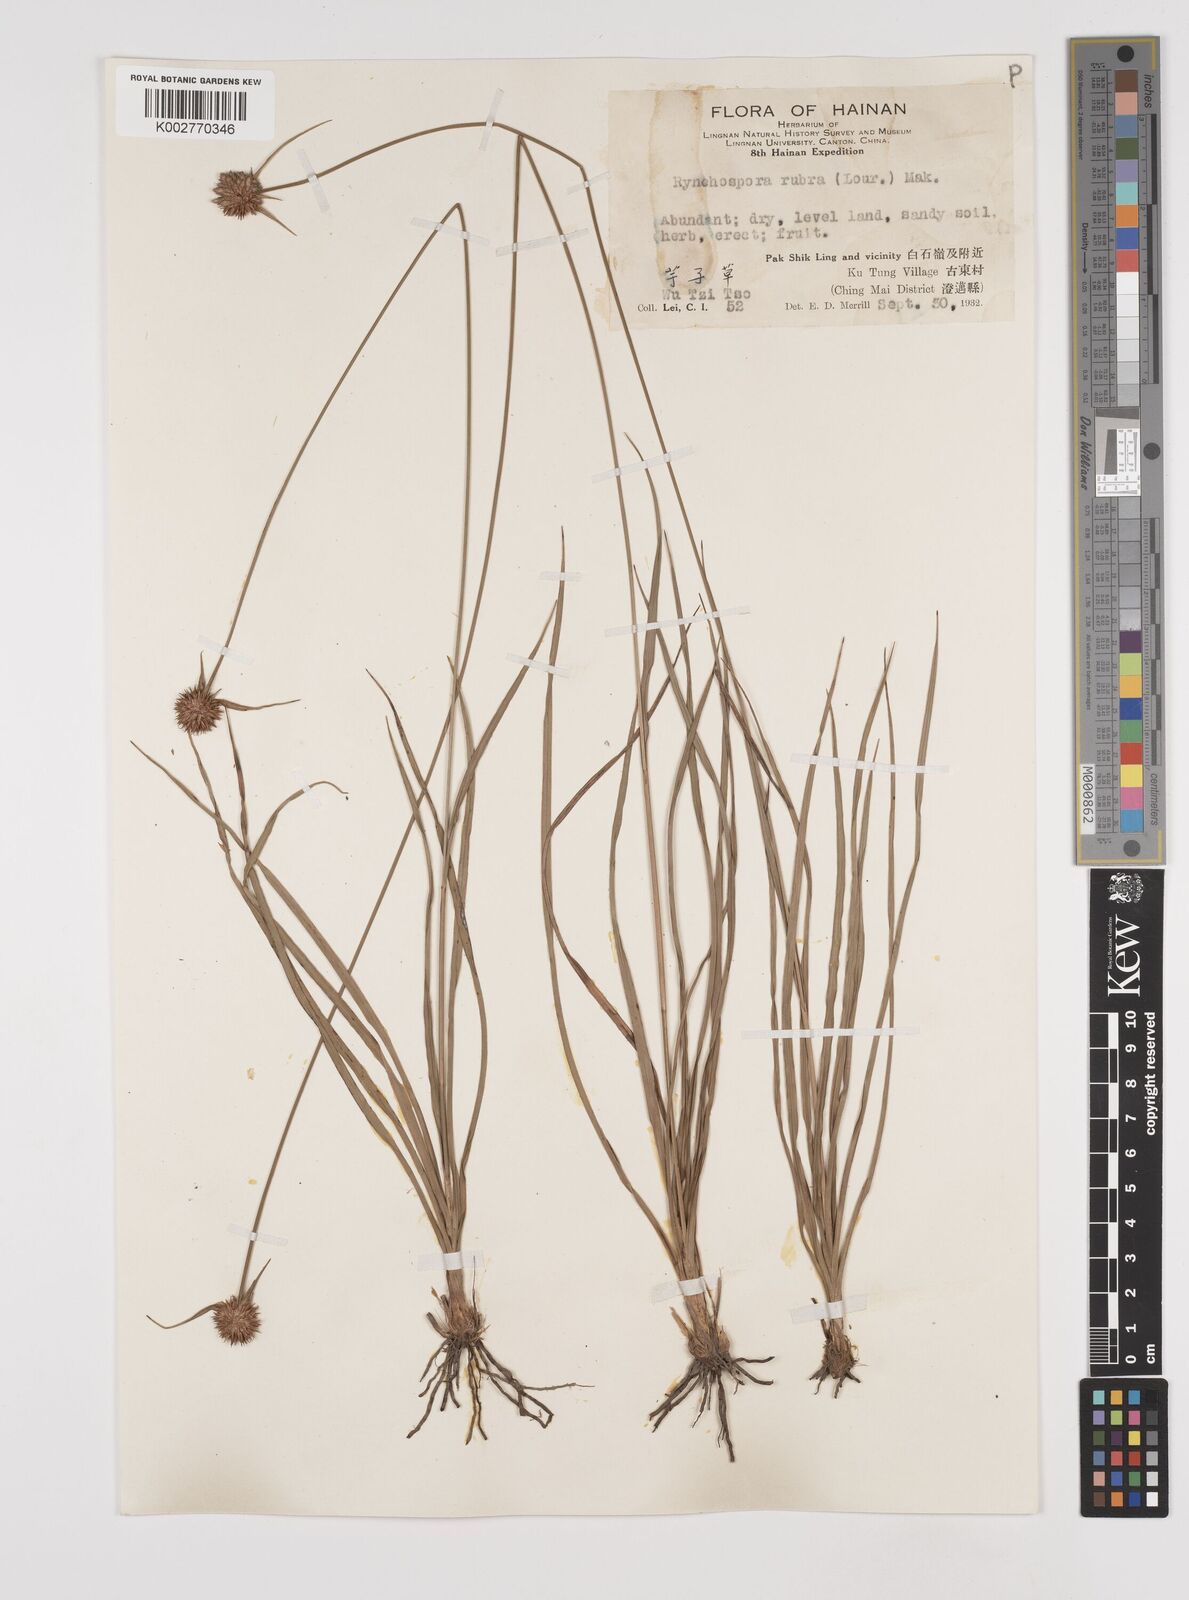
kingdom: Plantae
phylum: Tracheophyta
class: Liliopsida
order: Poales
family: Cyperaceae
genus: Rhynchospora
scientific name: Rhynchospora rubra
